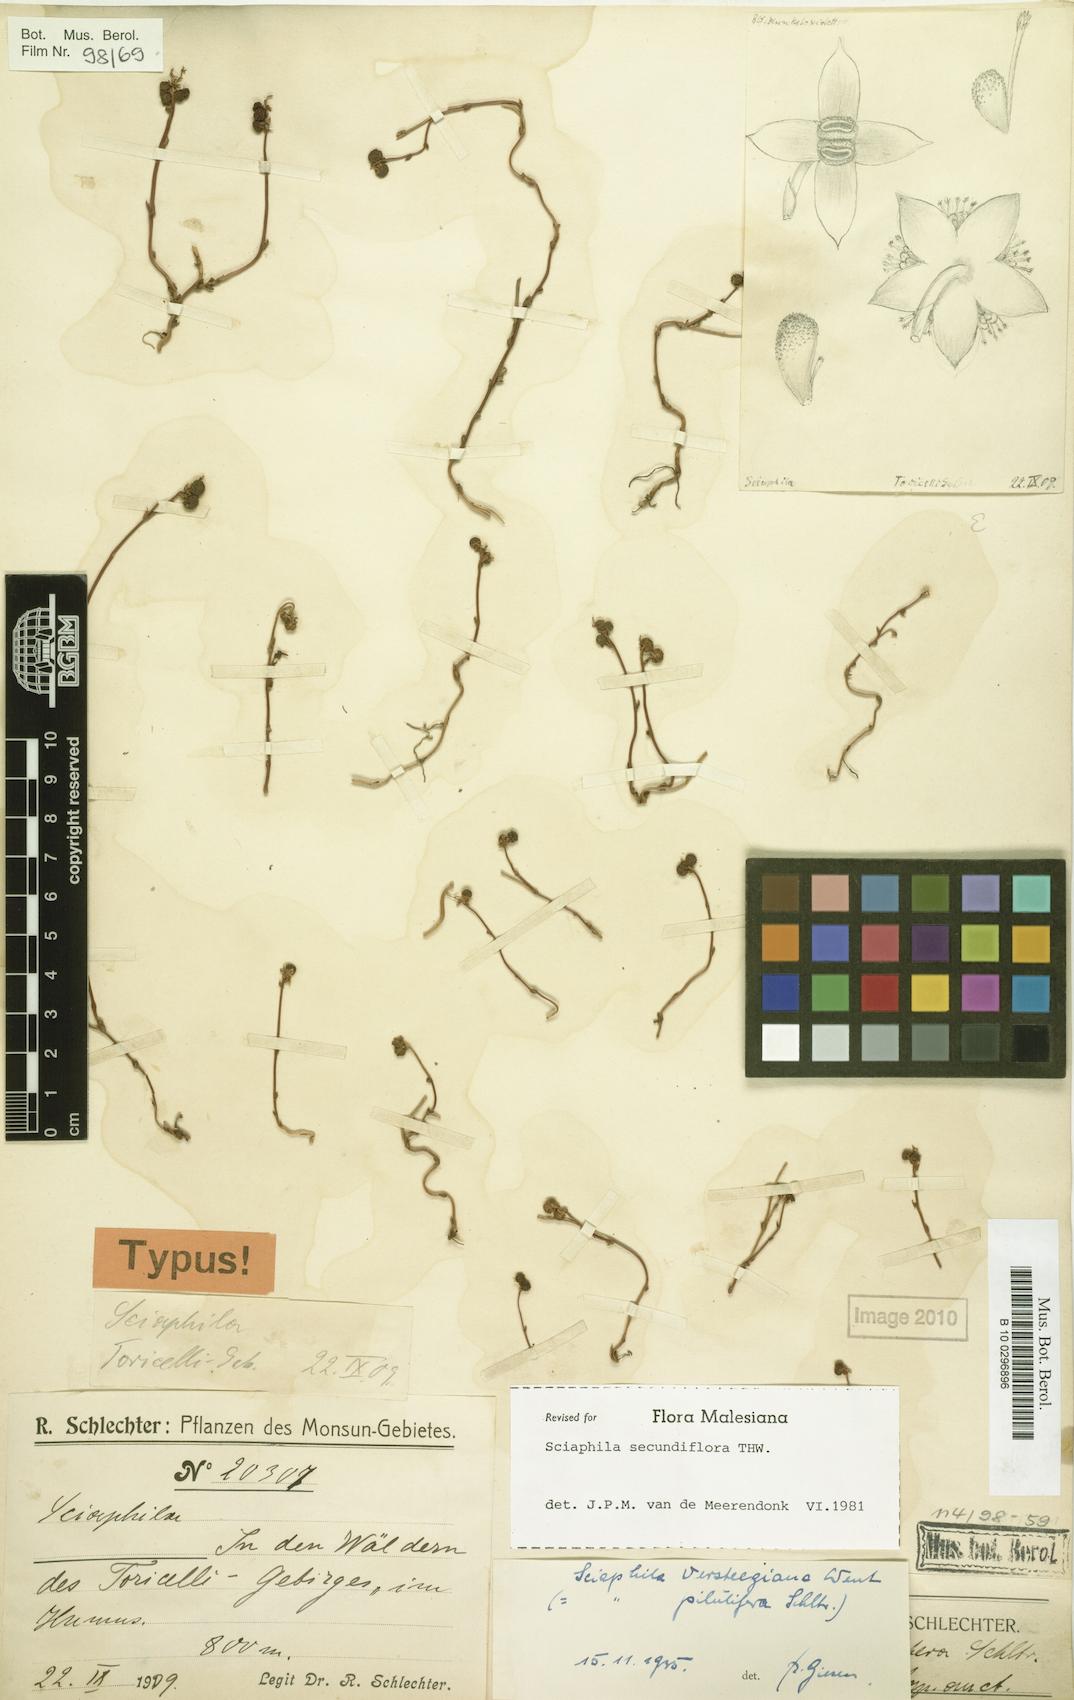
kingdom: Plantae
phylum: Tracheophyta
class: Liliopsida
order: Pandanales
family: Triuridaceae
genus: Sciaphila
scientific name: Sciaphila secundiflora
